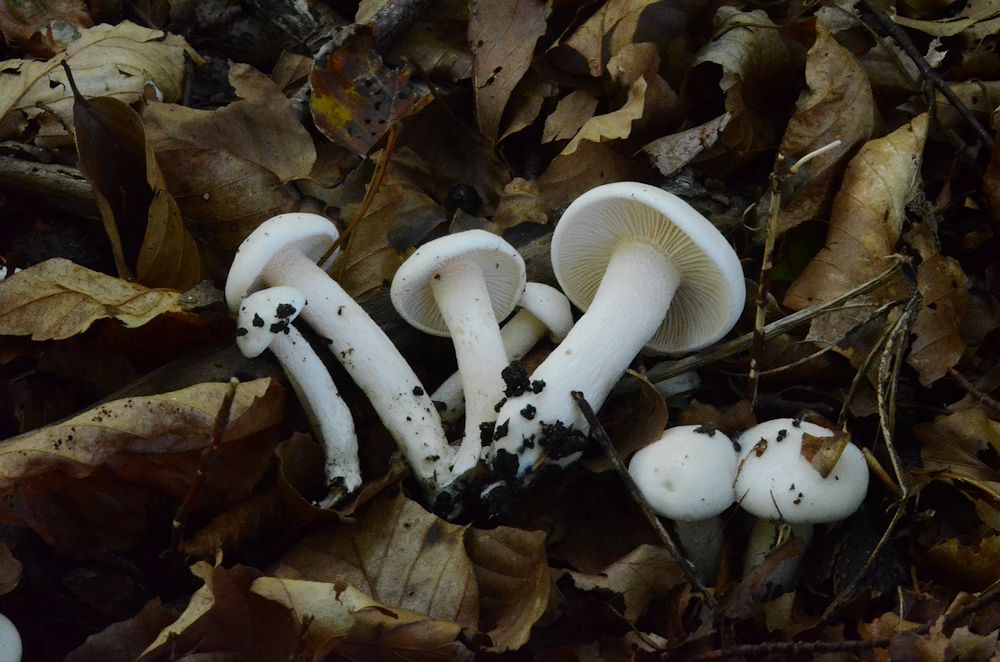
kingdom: Fungi
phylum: Basidiomycota
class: Agaricomycetes
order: Agaricales
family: Hygrophoraceae
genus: Hygrophorus
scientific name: Hygrophorus eburneus
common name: elfenbens-sneglehat
